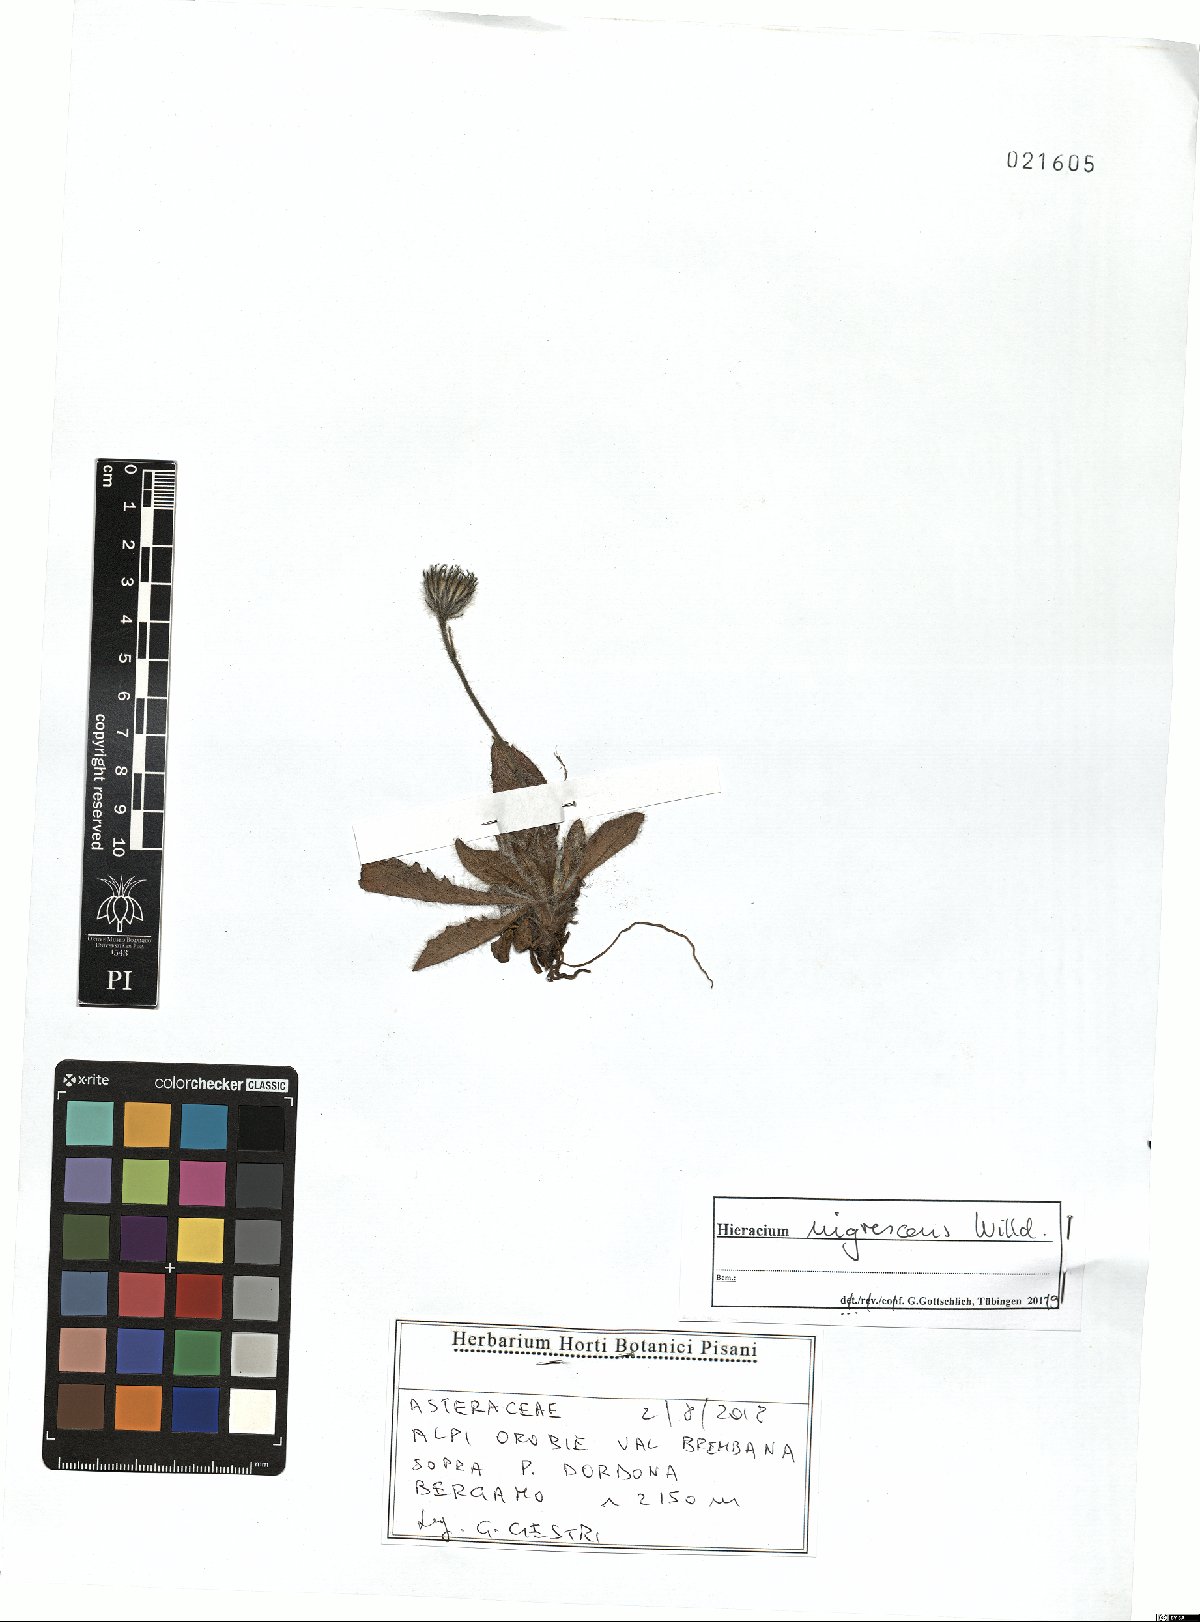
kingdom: Plantae
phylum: Tracheophyta
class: Magnoliopsida
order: Asterales
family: Asteraceae
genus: Hieracium
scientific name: Hieracium nigrescens
